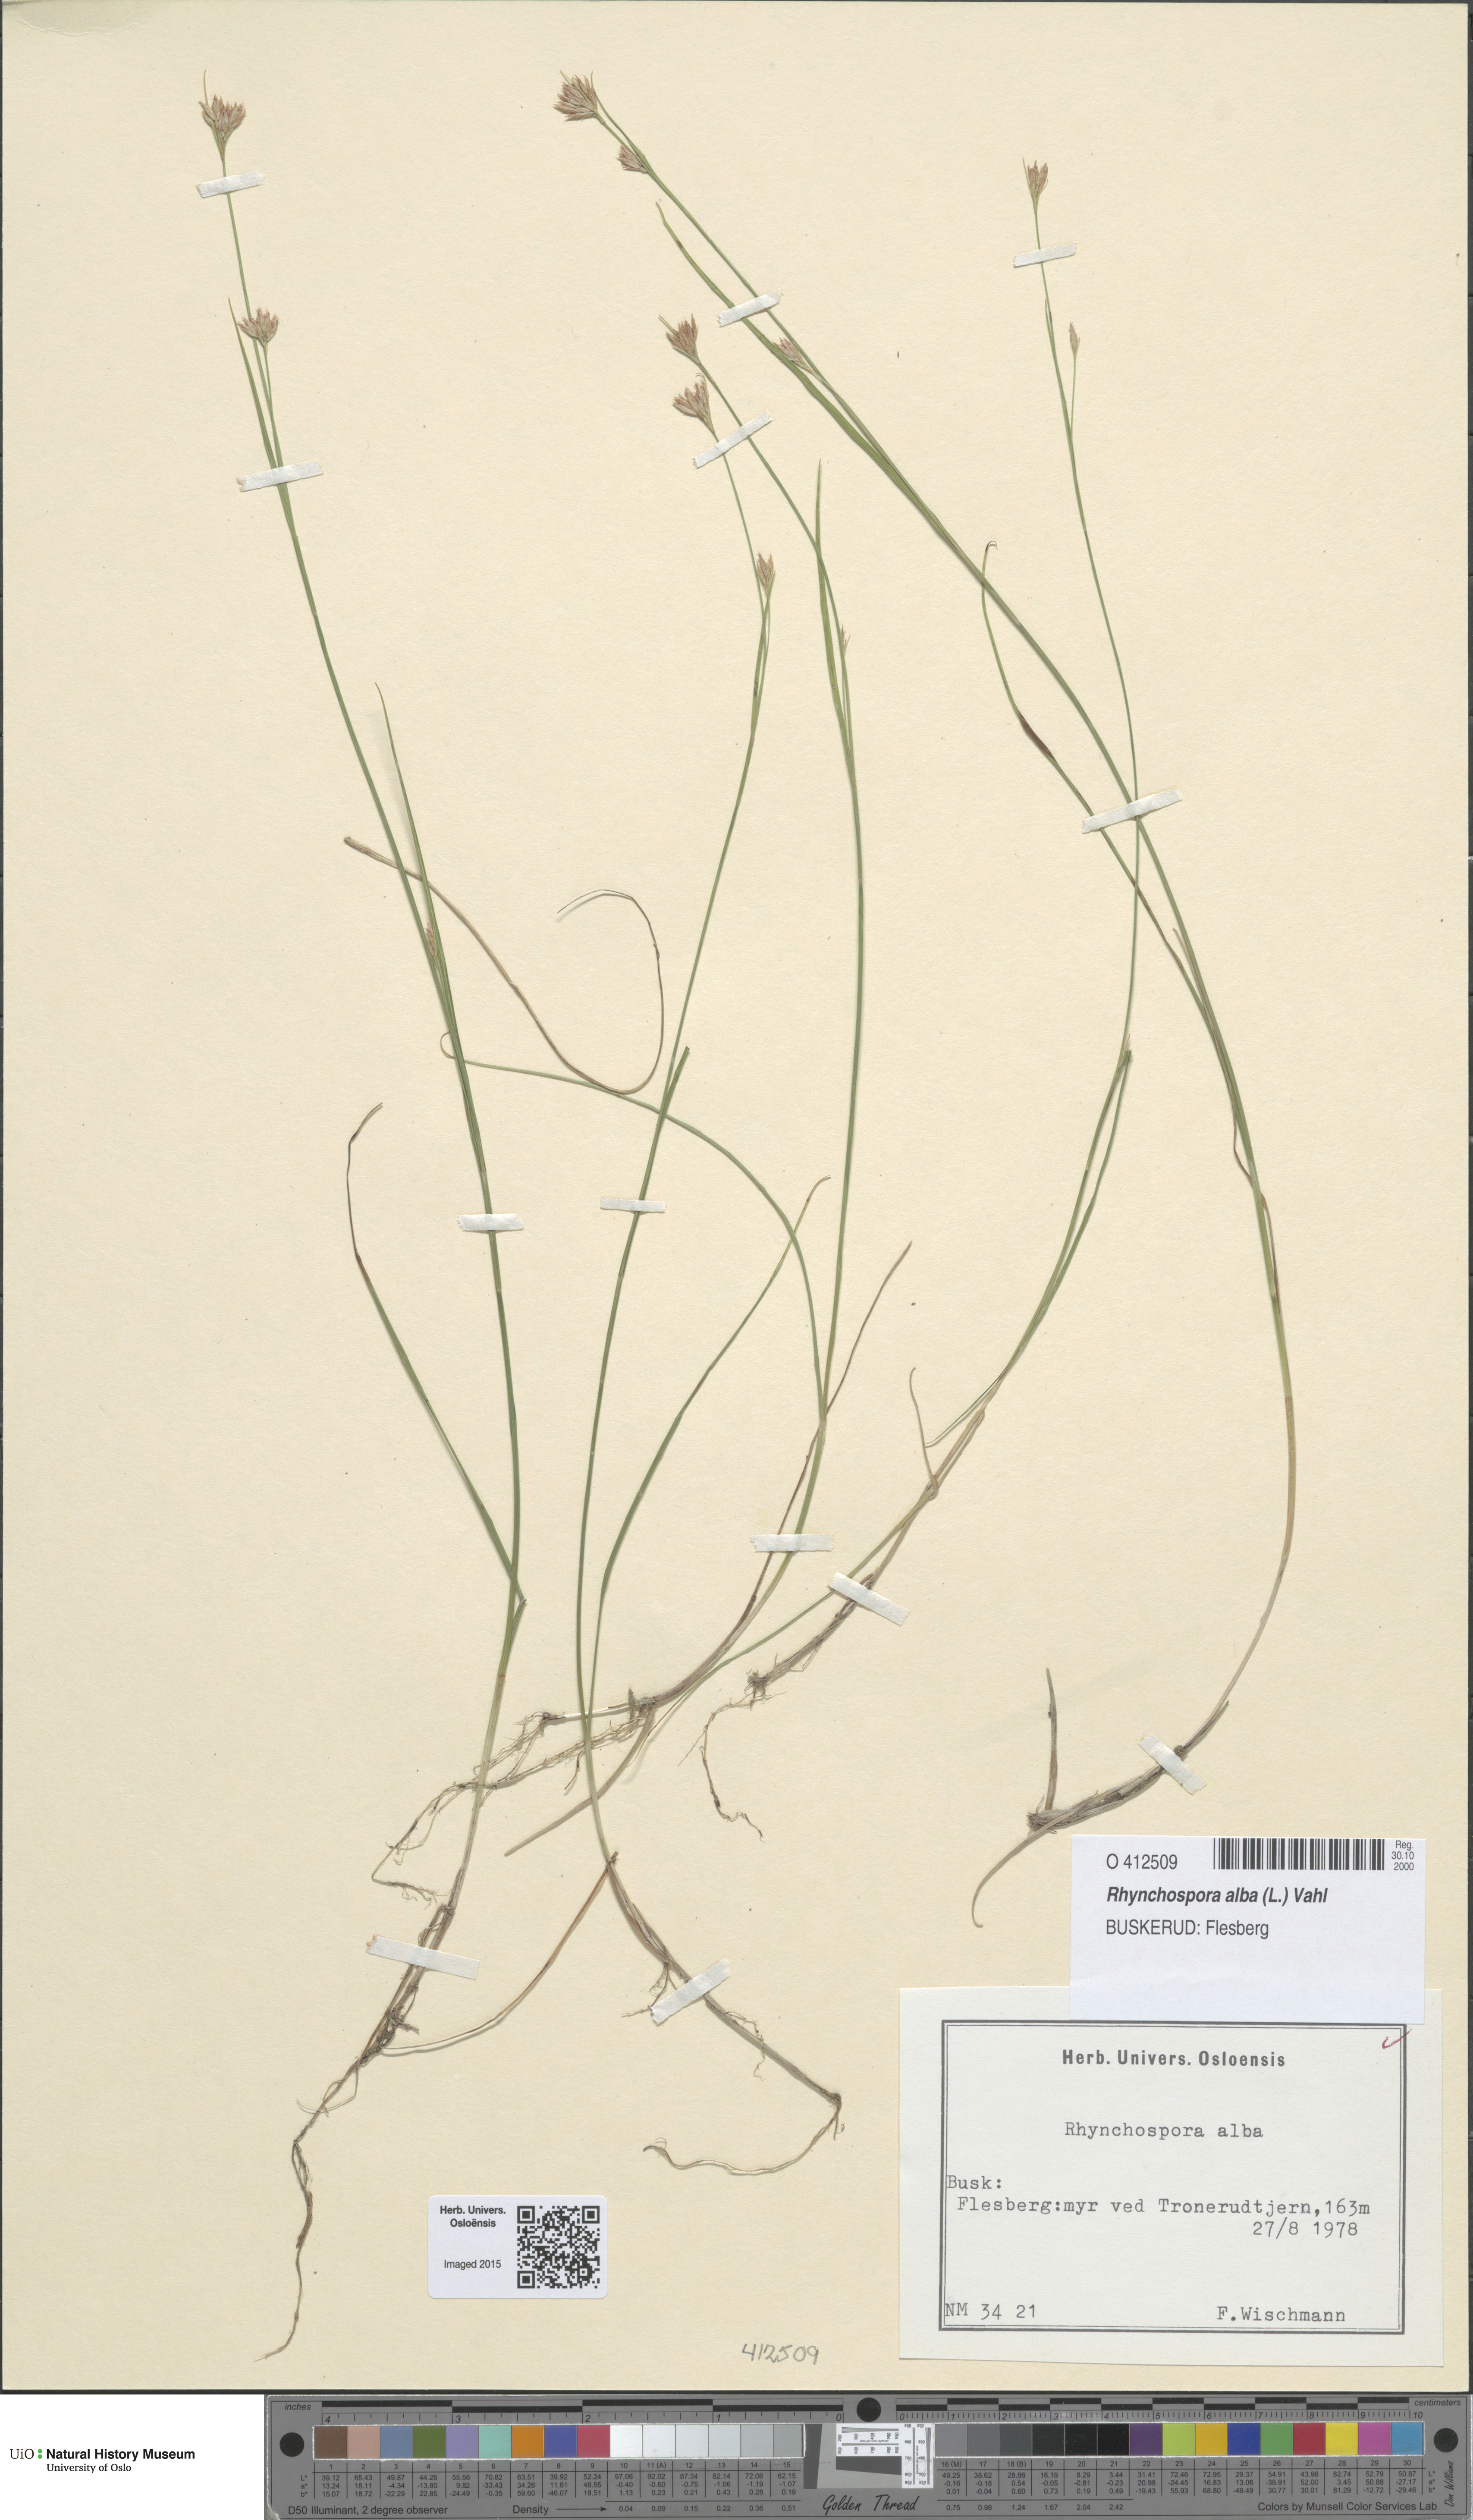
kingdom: Plantae
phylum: Tracheophyta
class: Liliopsida
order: Poales
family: Cyperaceae
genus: Rhynchospora
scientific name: Rhynchospora alba
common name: White beak-sedge
